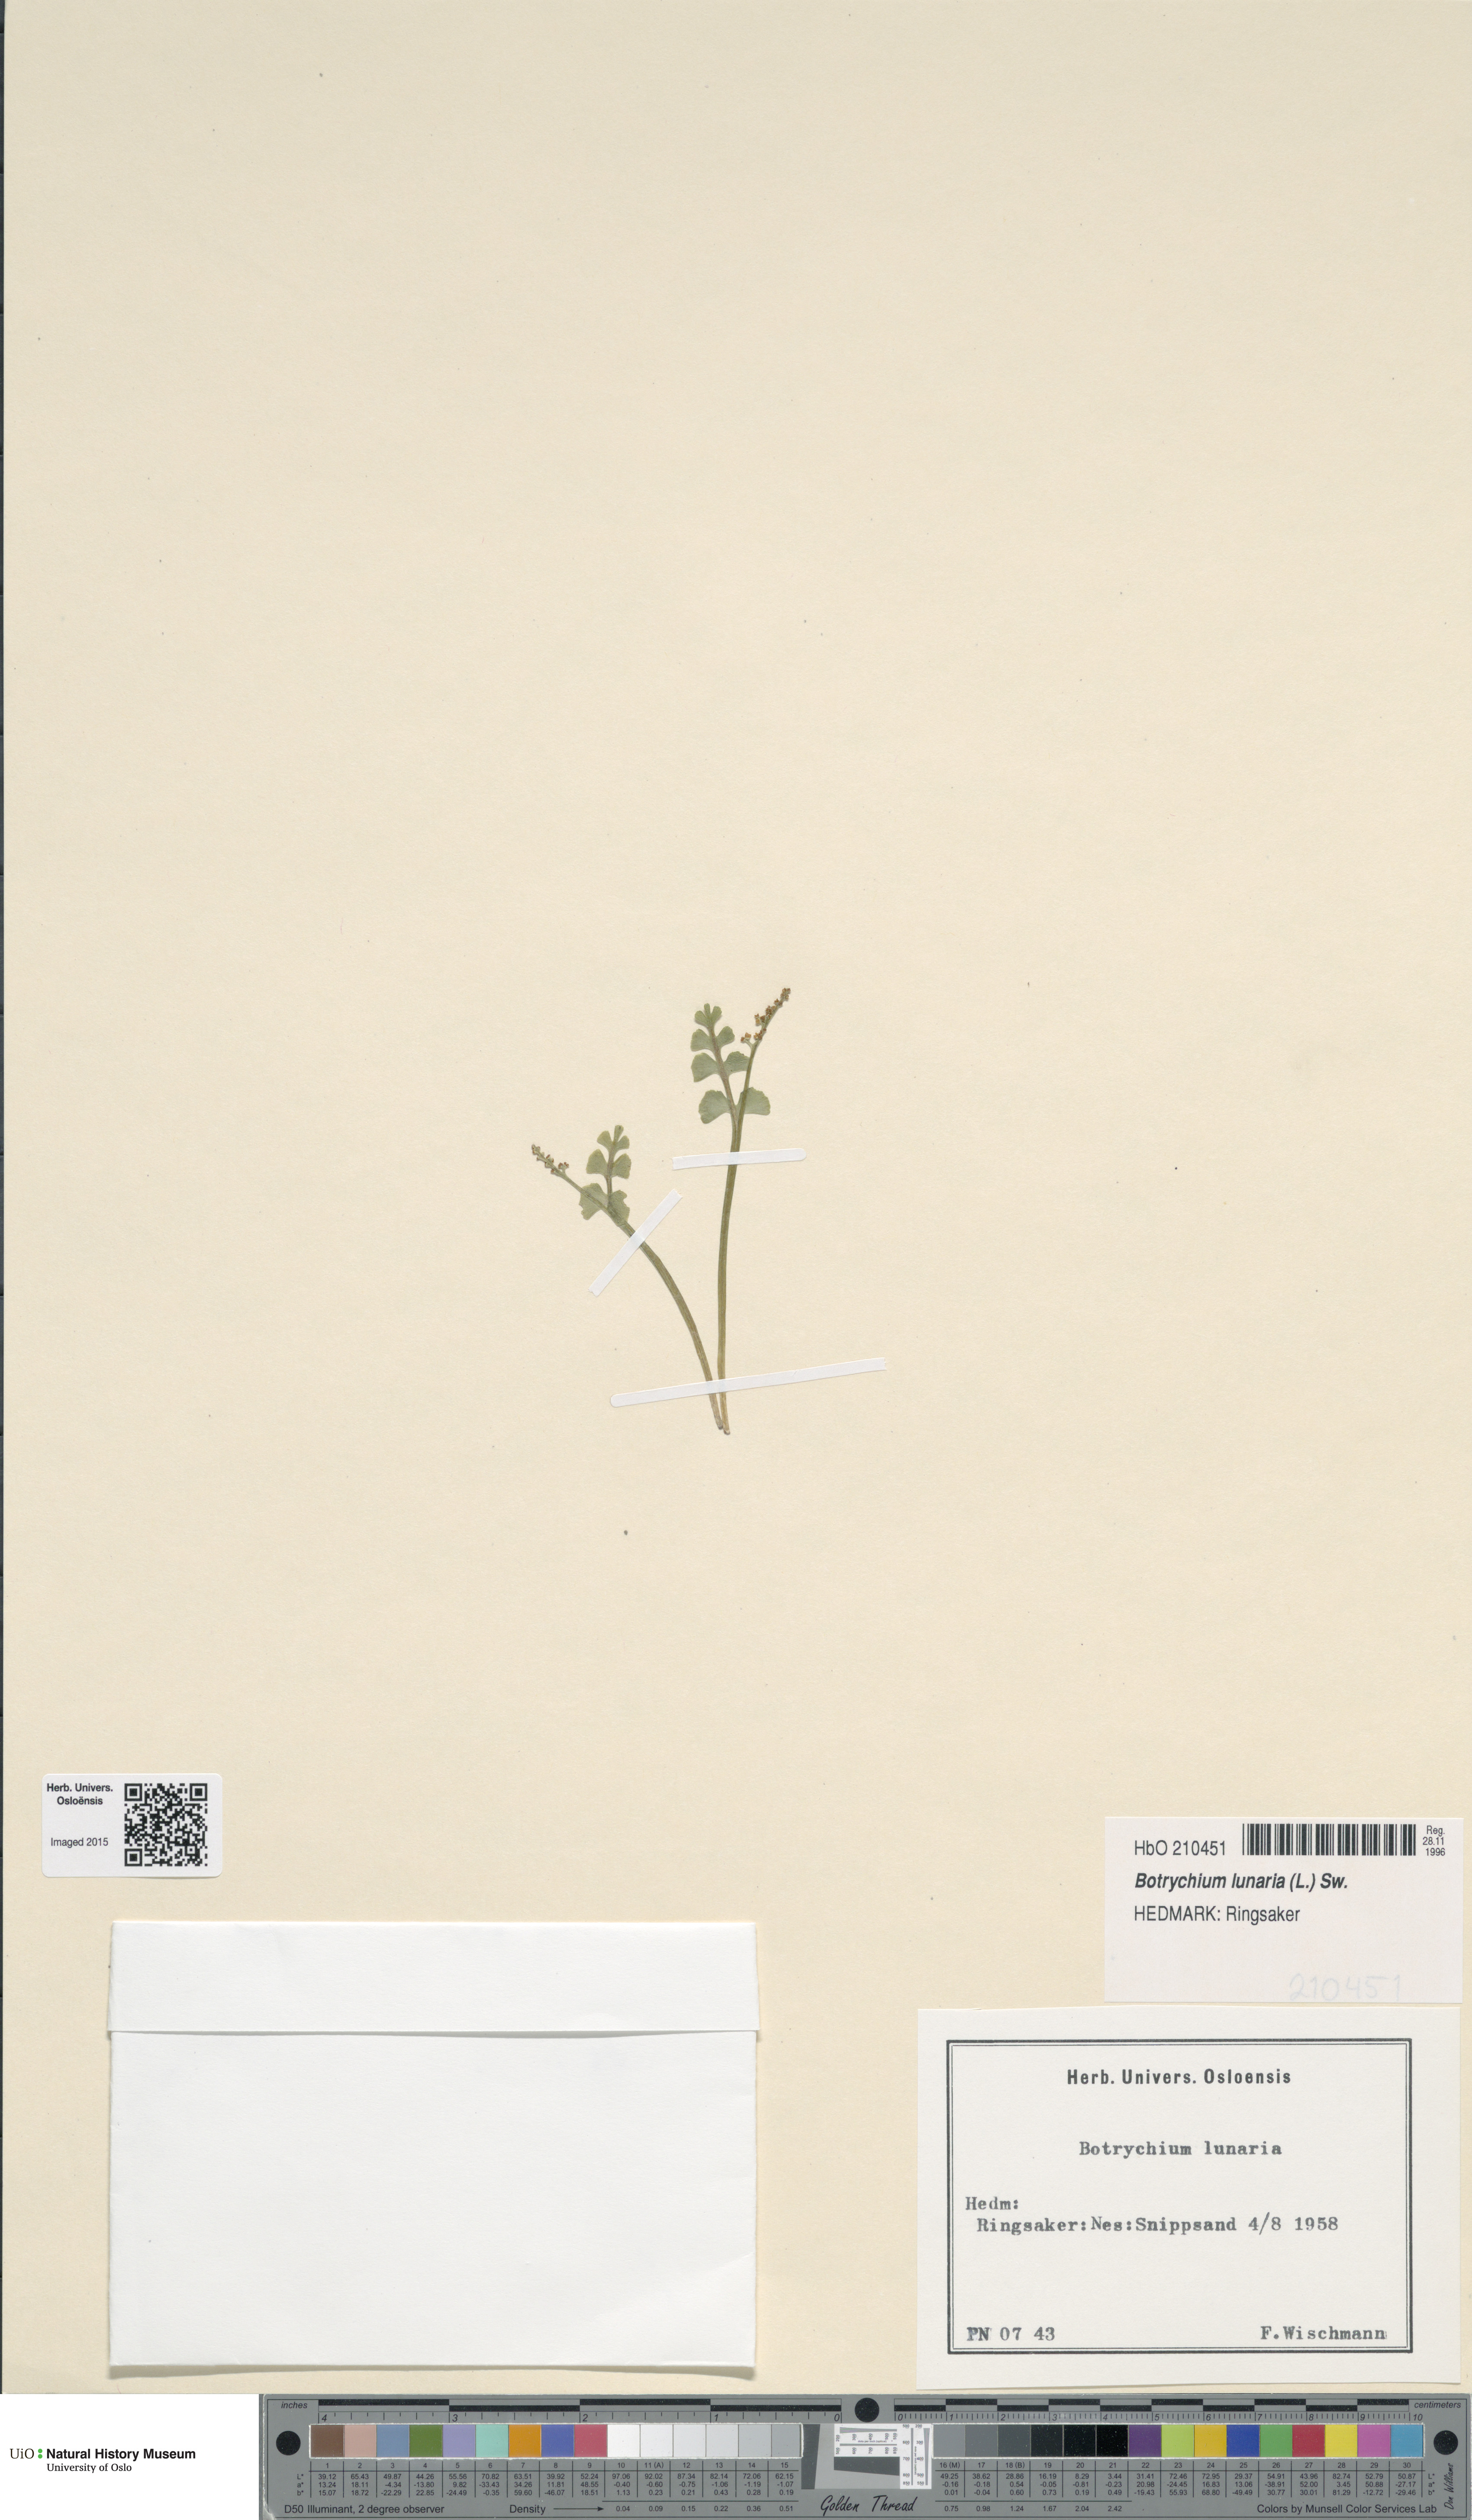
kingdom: Plantae
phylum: Tracheophyta
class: Polypodiopsida
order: Ophioglossales
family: Ophioglossaceae
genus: Botrychium
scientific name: Botrychium lunaria
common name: Moonwort
